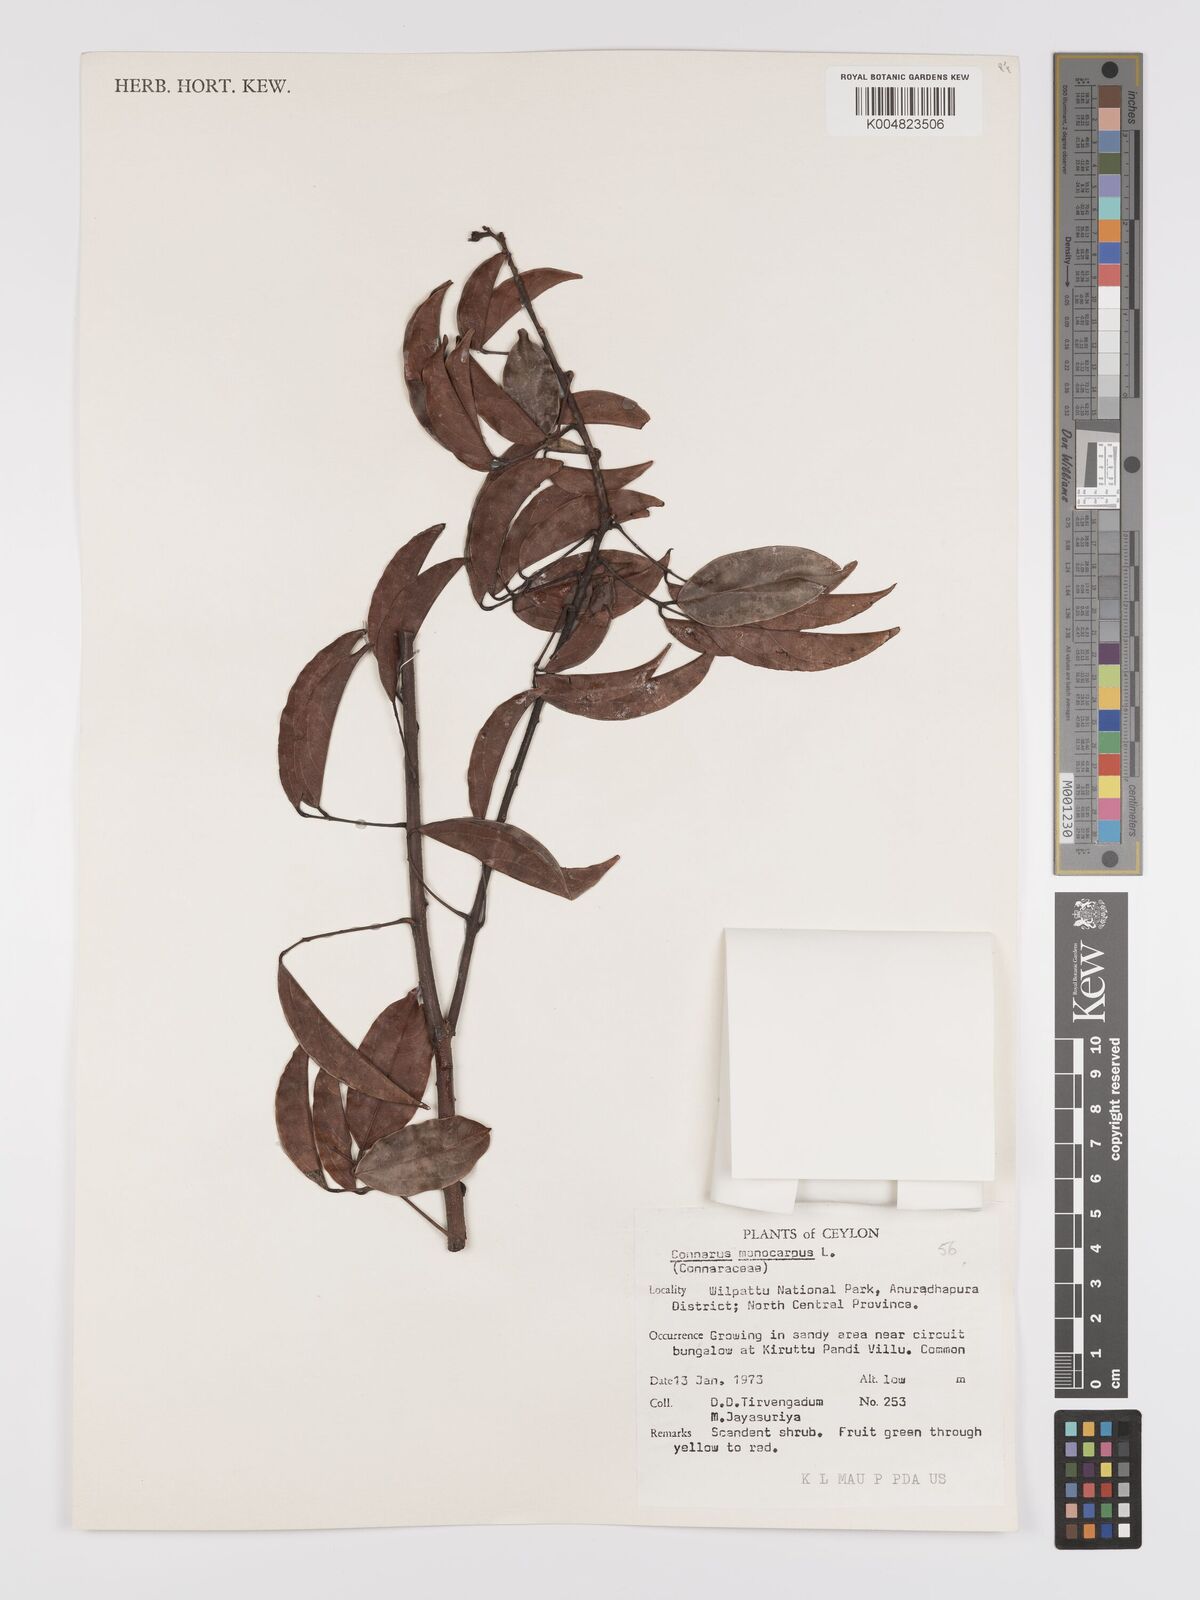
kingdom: Plantae
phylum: Tracheophyta
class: Magnoliopsida
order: Oxalidales
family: Connaraceae
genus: Connarus
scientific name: Connarus semidecandrus
